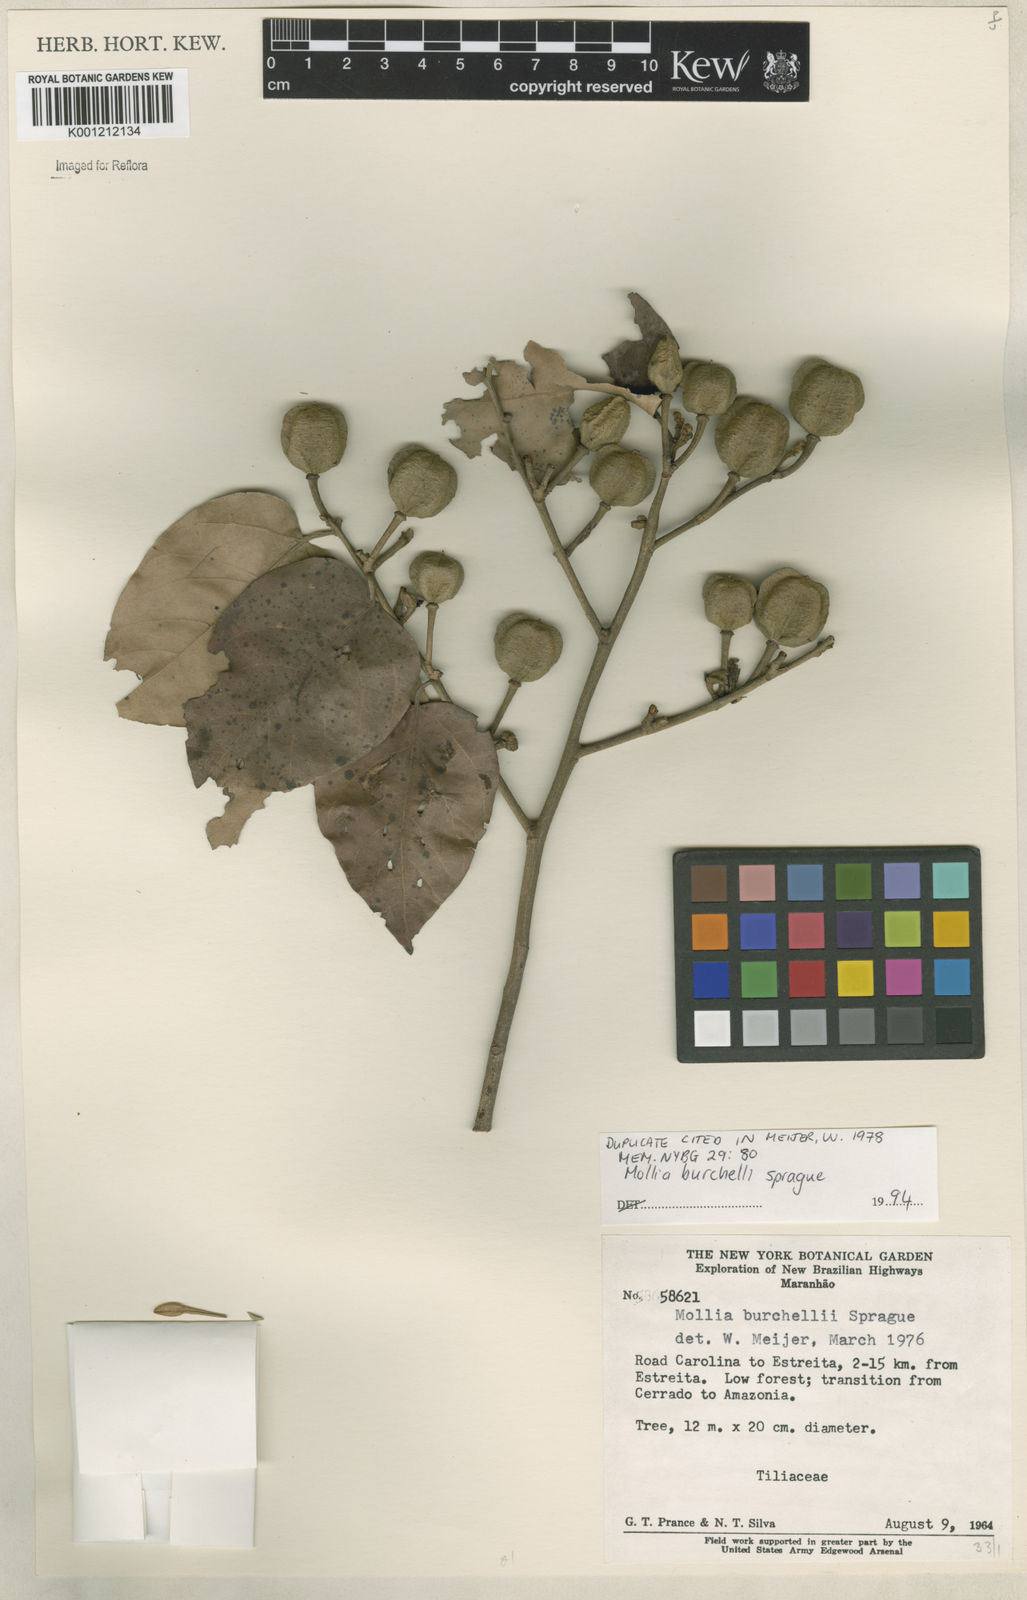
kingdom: Plantae
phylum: Tracheophyta
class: Magnoliopsida
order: Malvales
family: Malvaceae
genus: Mollia
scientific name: Mollia burchellii
